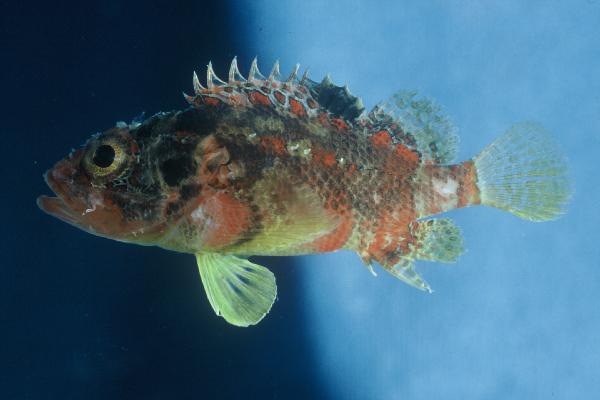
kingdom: Animalia
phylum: Chordata
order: Scorpaeniformes
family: Scorpaenidae
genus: Scorpaenodes
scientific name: Scorpaenodes varipinnis
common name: Blotchfin scorpionfish
